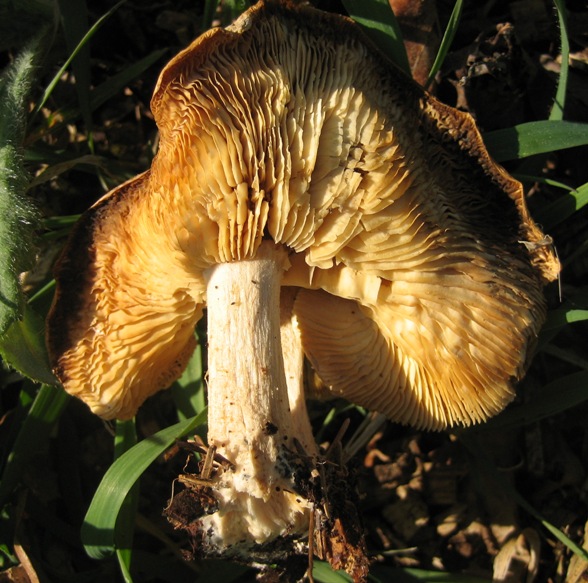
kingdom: Fungi
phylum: Basidiomycota
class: Agaricomycetes
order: Agaricales
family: Tricholomataceae
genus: Melanoleuca
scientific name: Melanoleuca cognata
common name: gyldengrå munkehat
